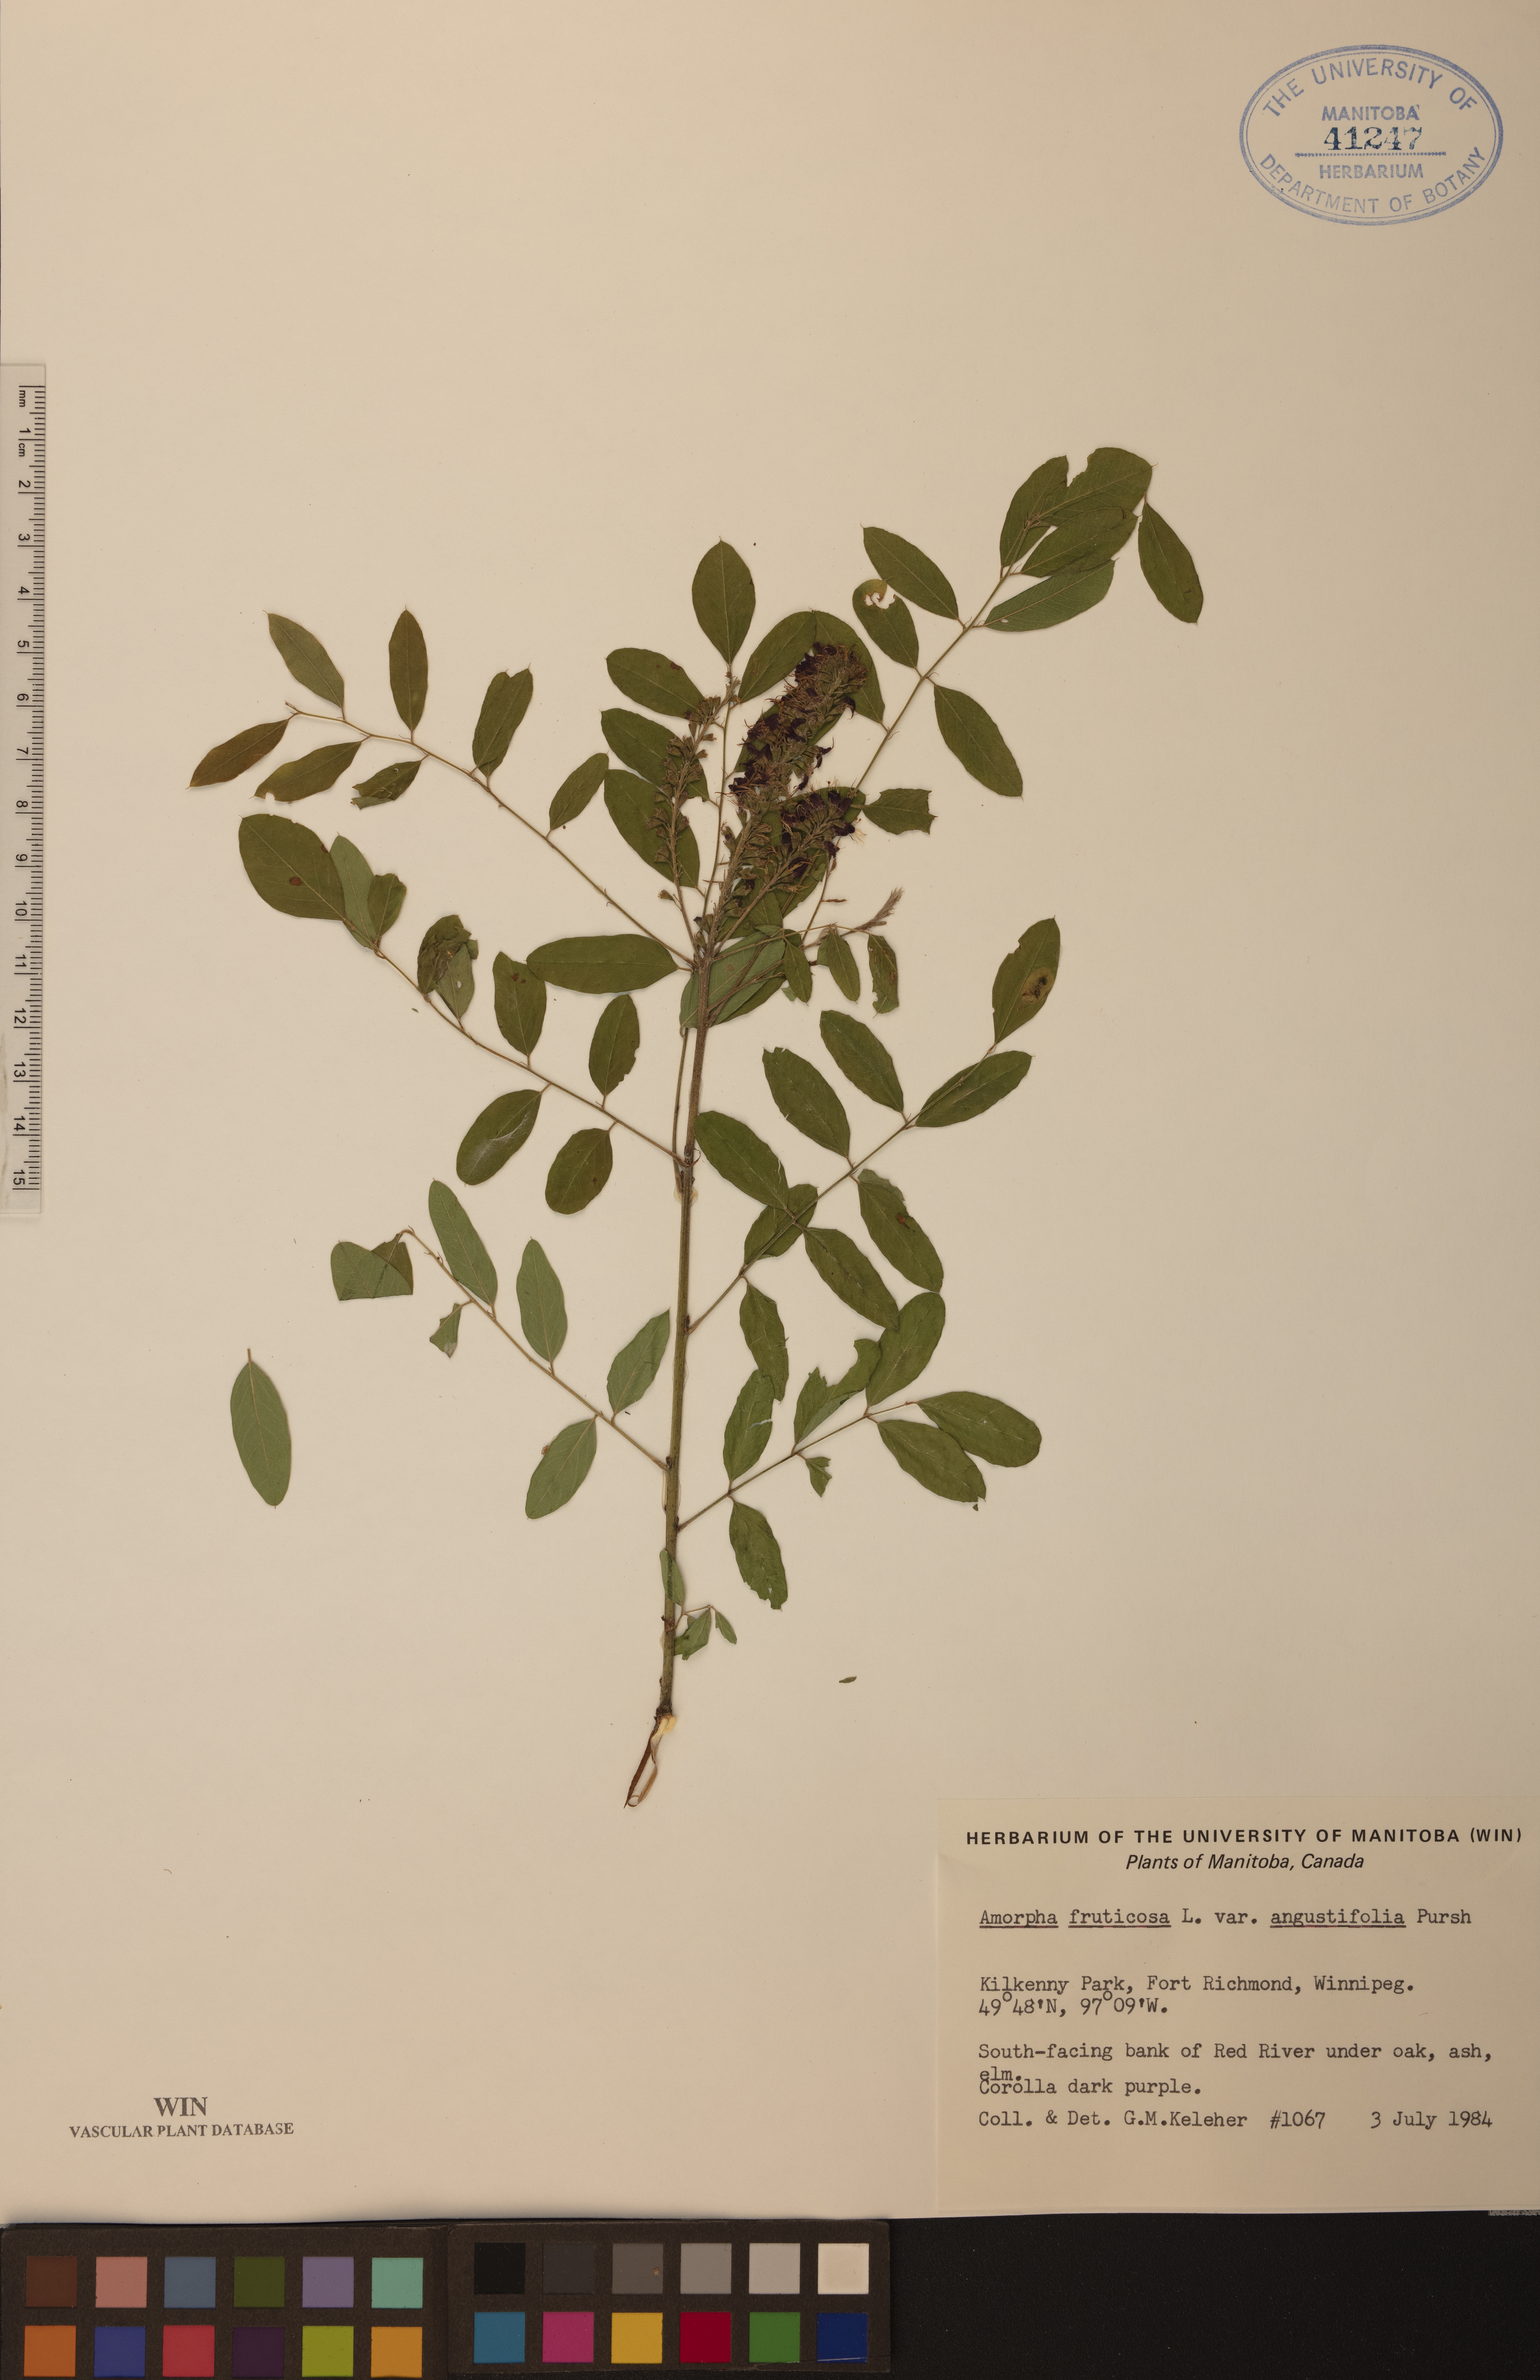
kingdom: Plantae
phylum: Tracheophyta
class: Magnoliopsida
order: Fabales
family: Fabaceae
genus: Amorpha
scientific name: Amorpha fruticosa
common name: False indigo
